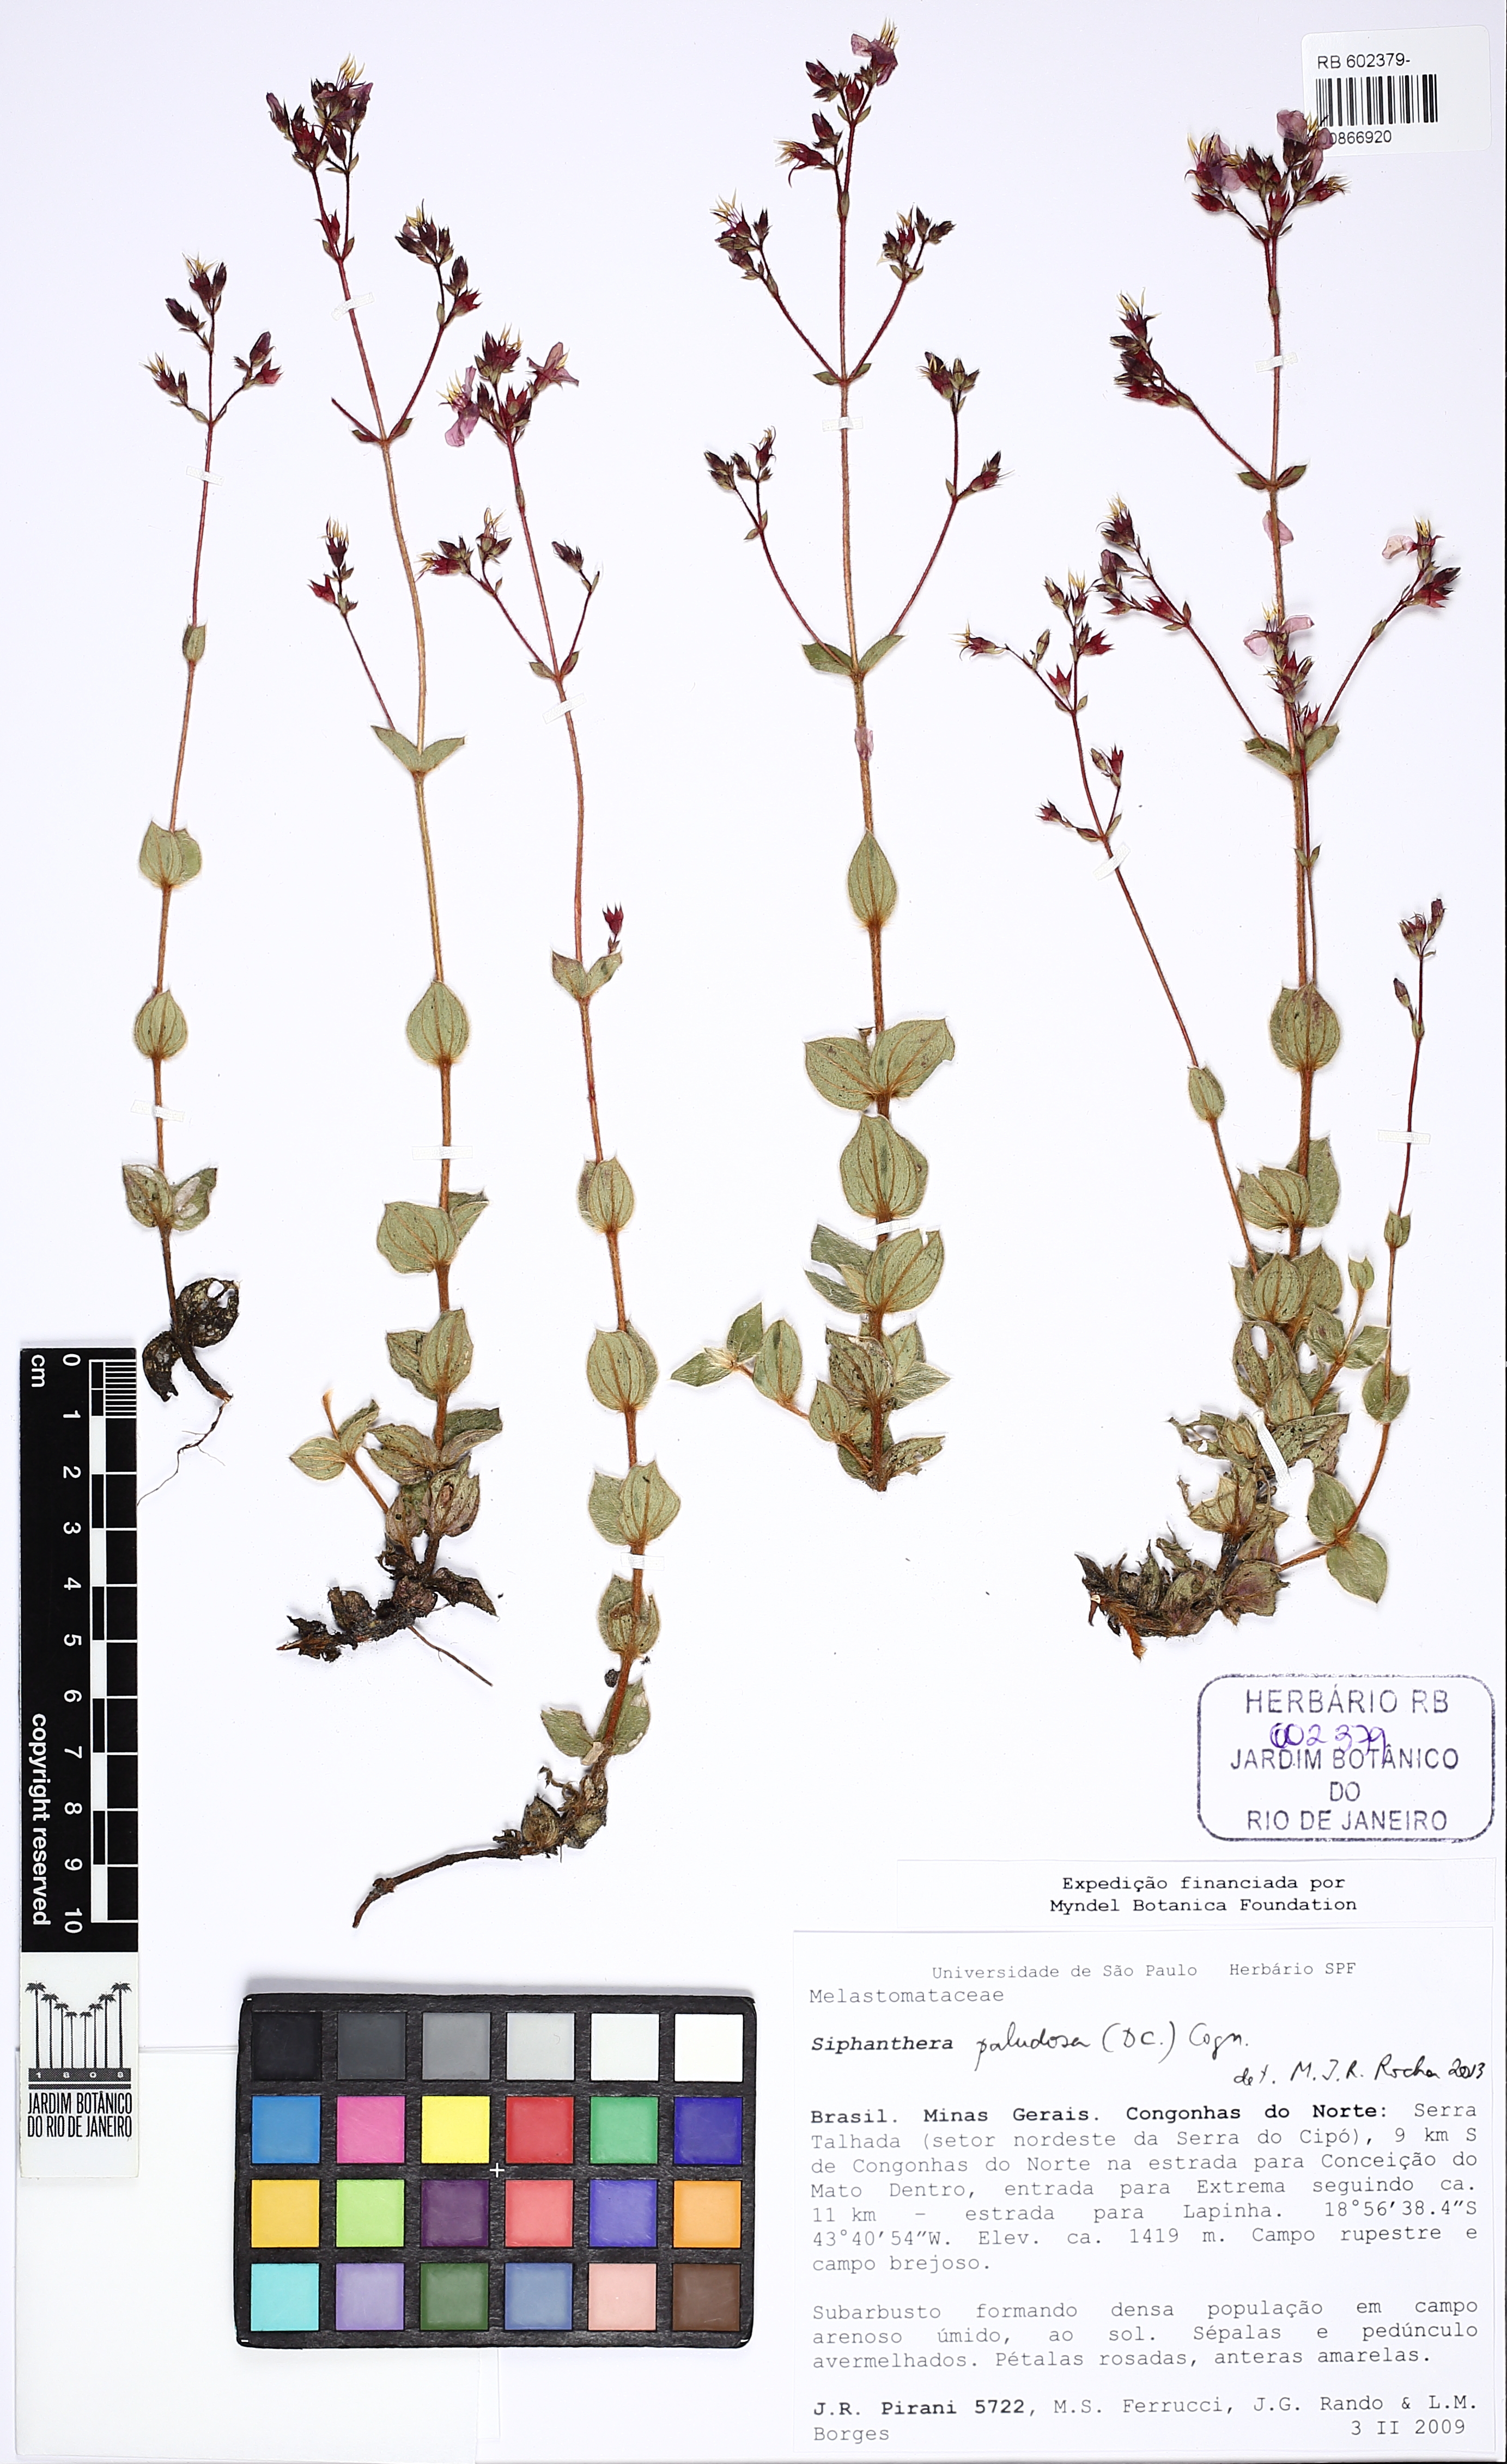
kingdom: Plantae
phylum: Tracheophyta
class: Magnoliopsida
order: Myrtales
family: Melastomataceae
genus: Siphanthera
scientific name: Siphanthera paludosa
